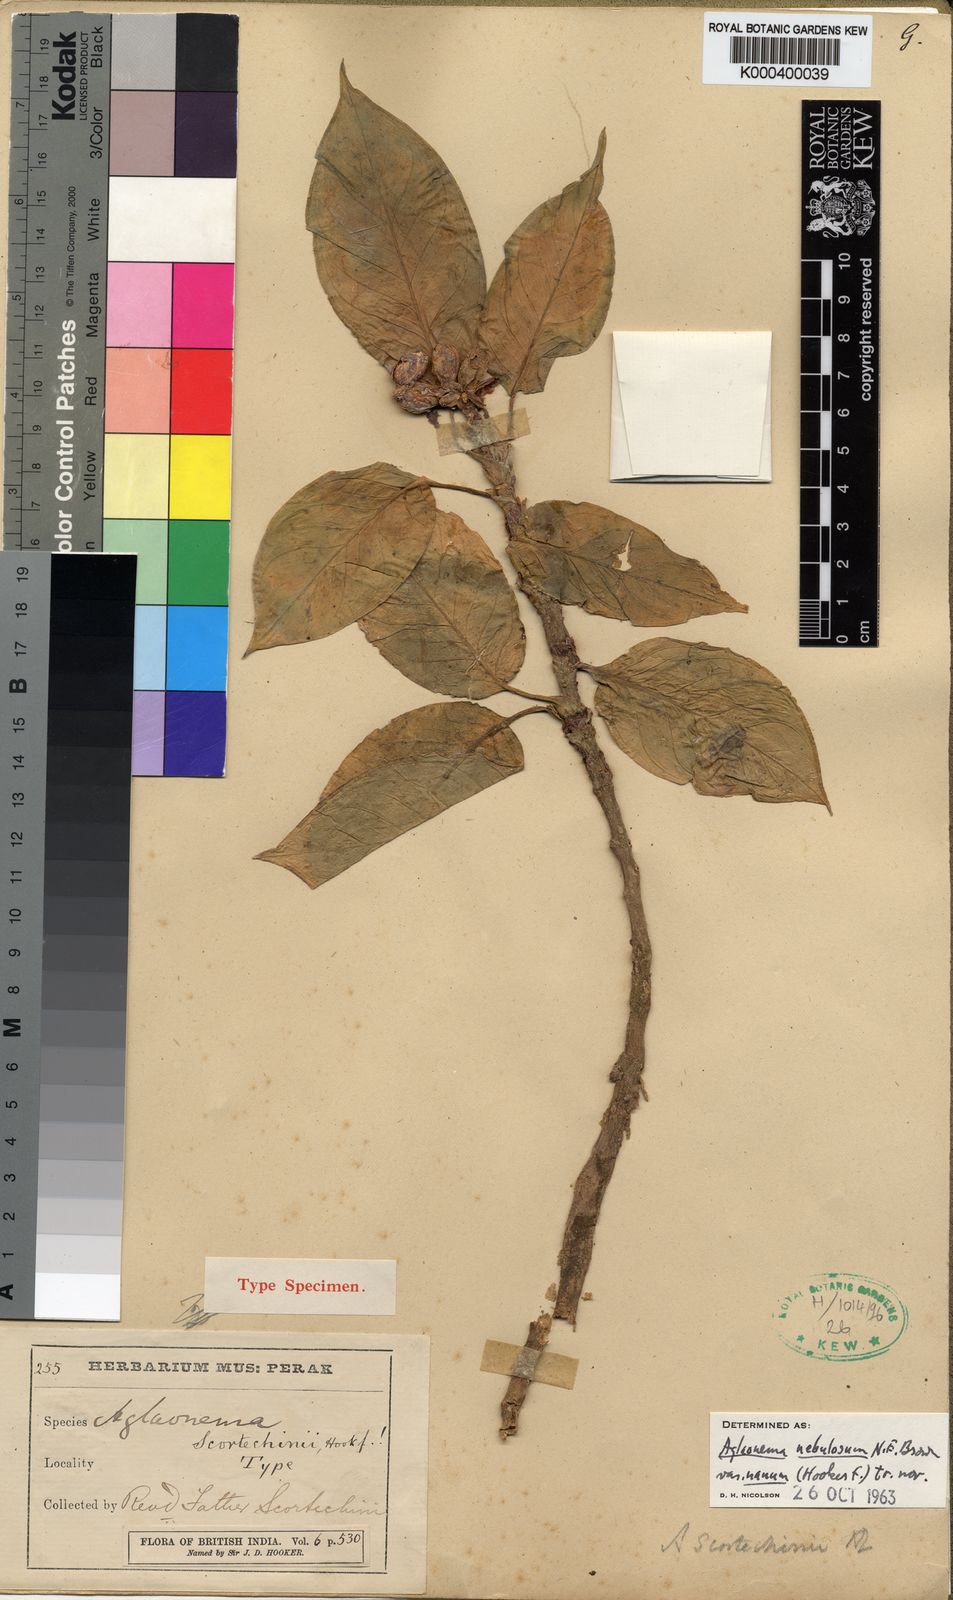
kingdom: Plantae
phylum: Tracheophyta
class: Liliopsida
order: Alismatales
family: Araceae
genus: Aglaonema
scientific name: Aglaonema nebulosum
